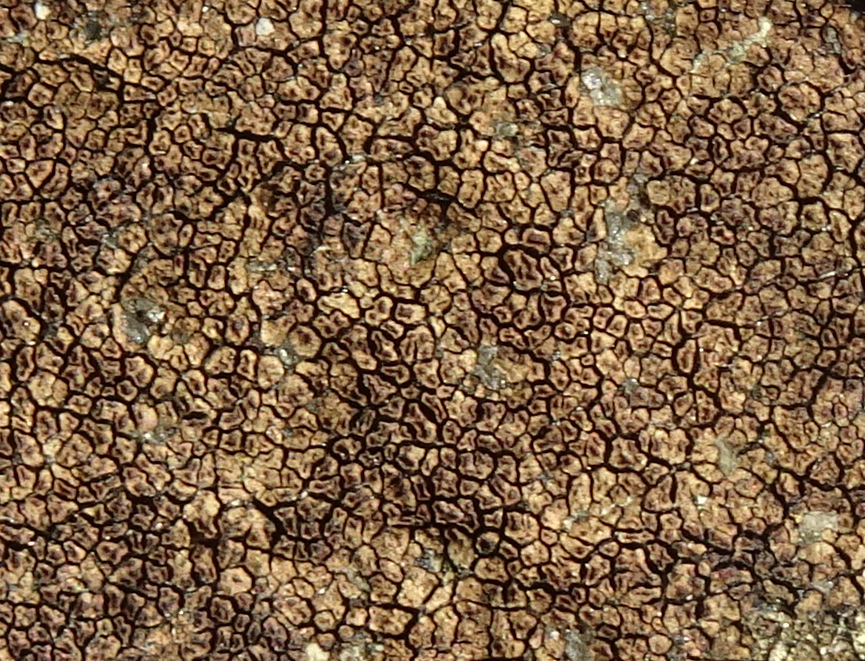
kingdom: Fungi
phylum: Ascomycota
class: Lecanoromycetes
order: Acarosporales
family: Acarosporaceae
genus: Acarospora
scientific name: Acarospora fuscata
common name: brun småsporelav
